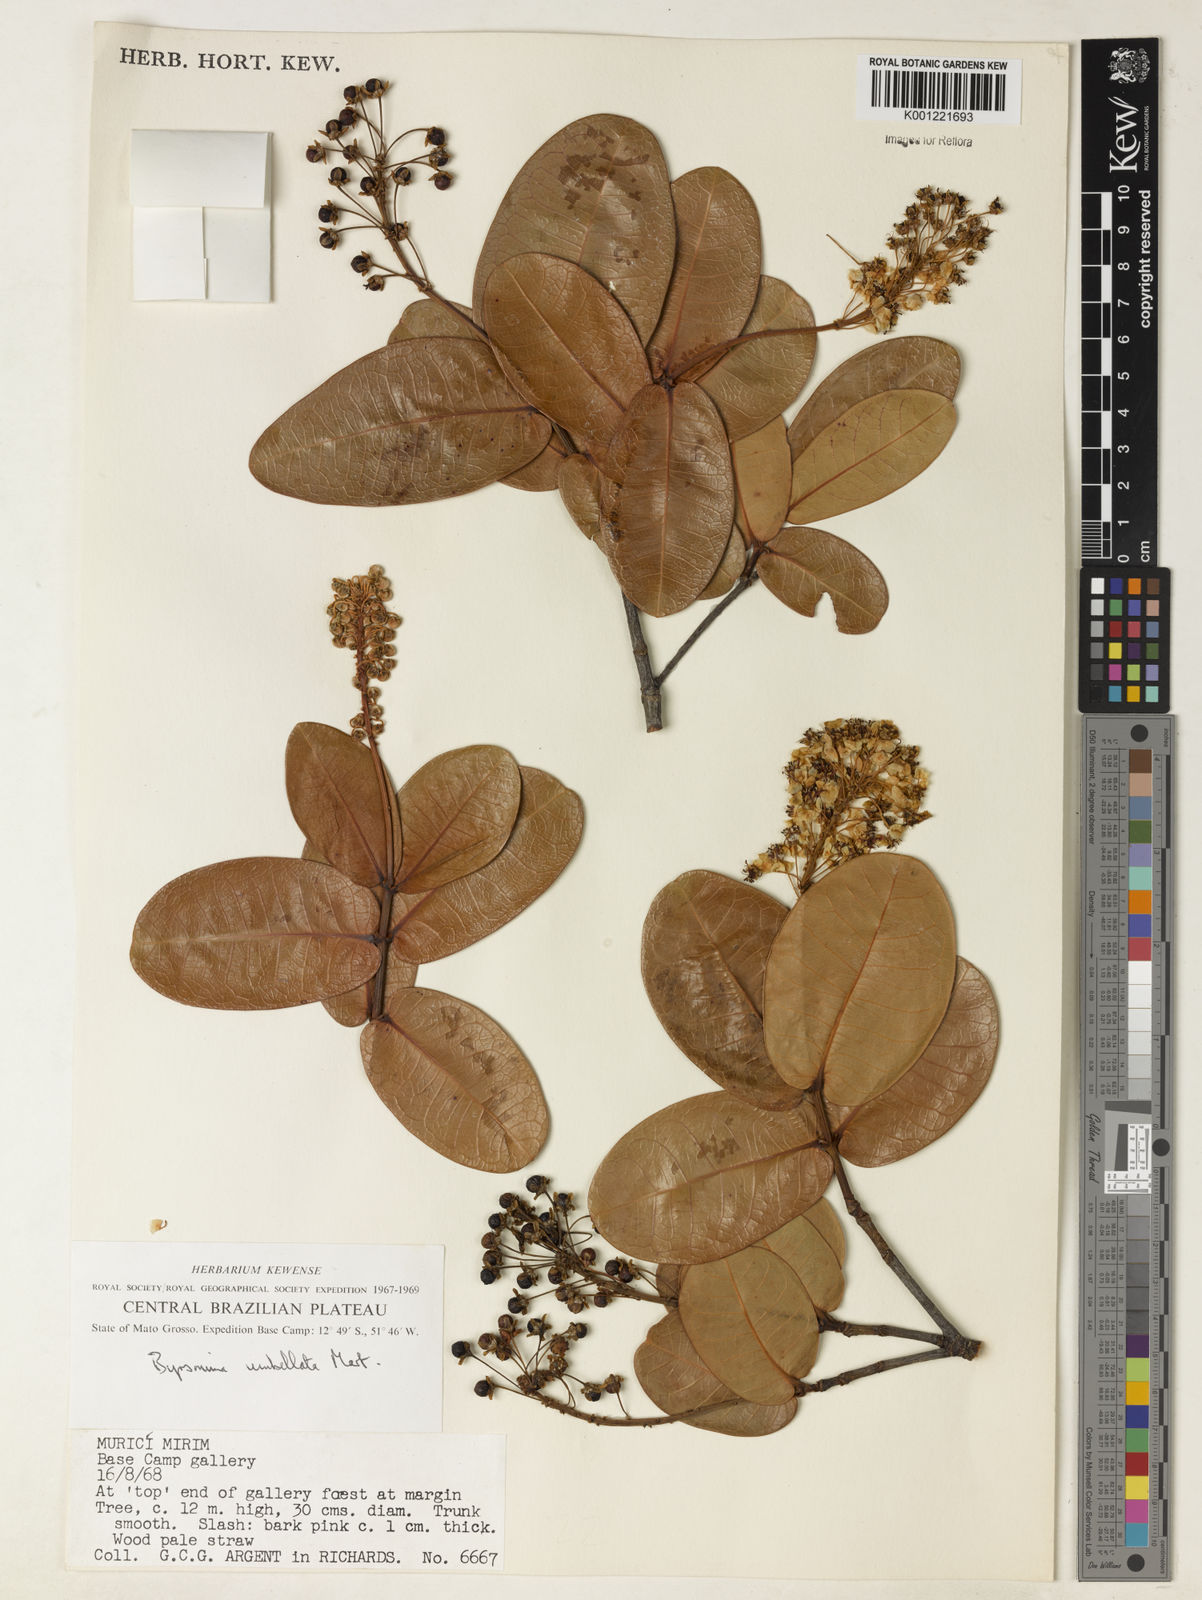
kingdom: Plantae
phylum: Tracheophyta
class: Magnoliopsida
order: Malpighiales
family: Malpighiaceae
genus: Byrsonima
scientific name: Byrsonima umbellata
